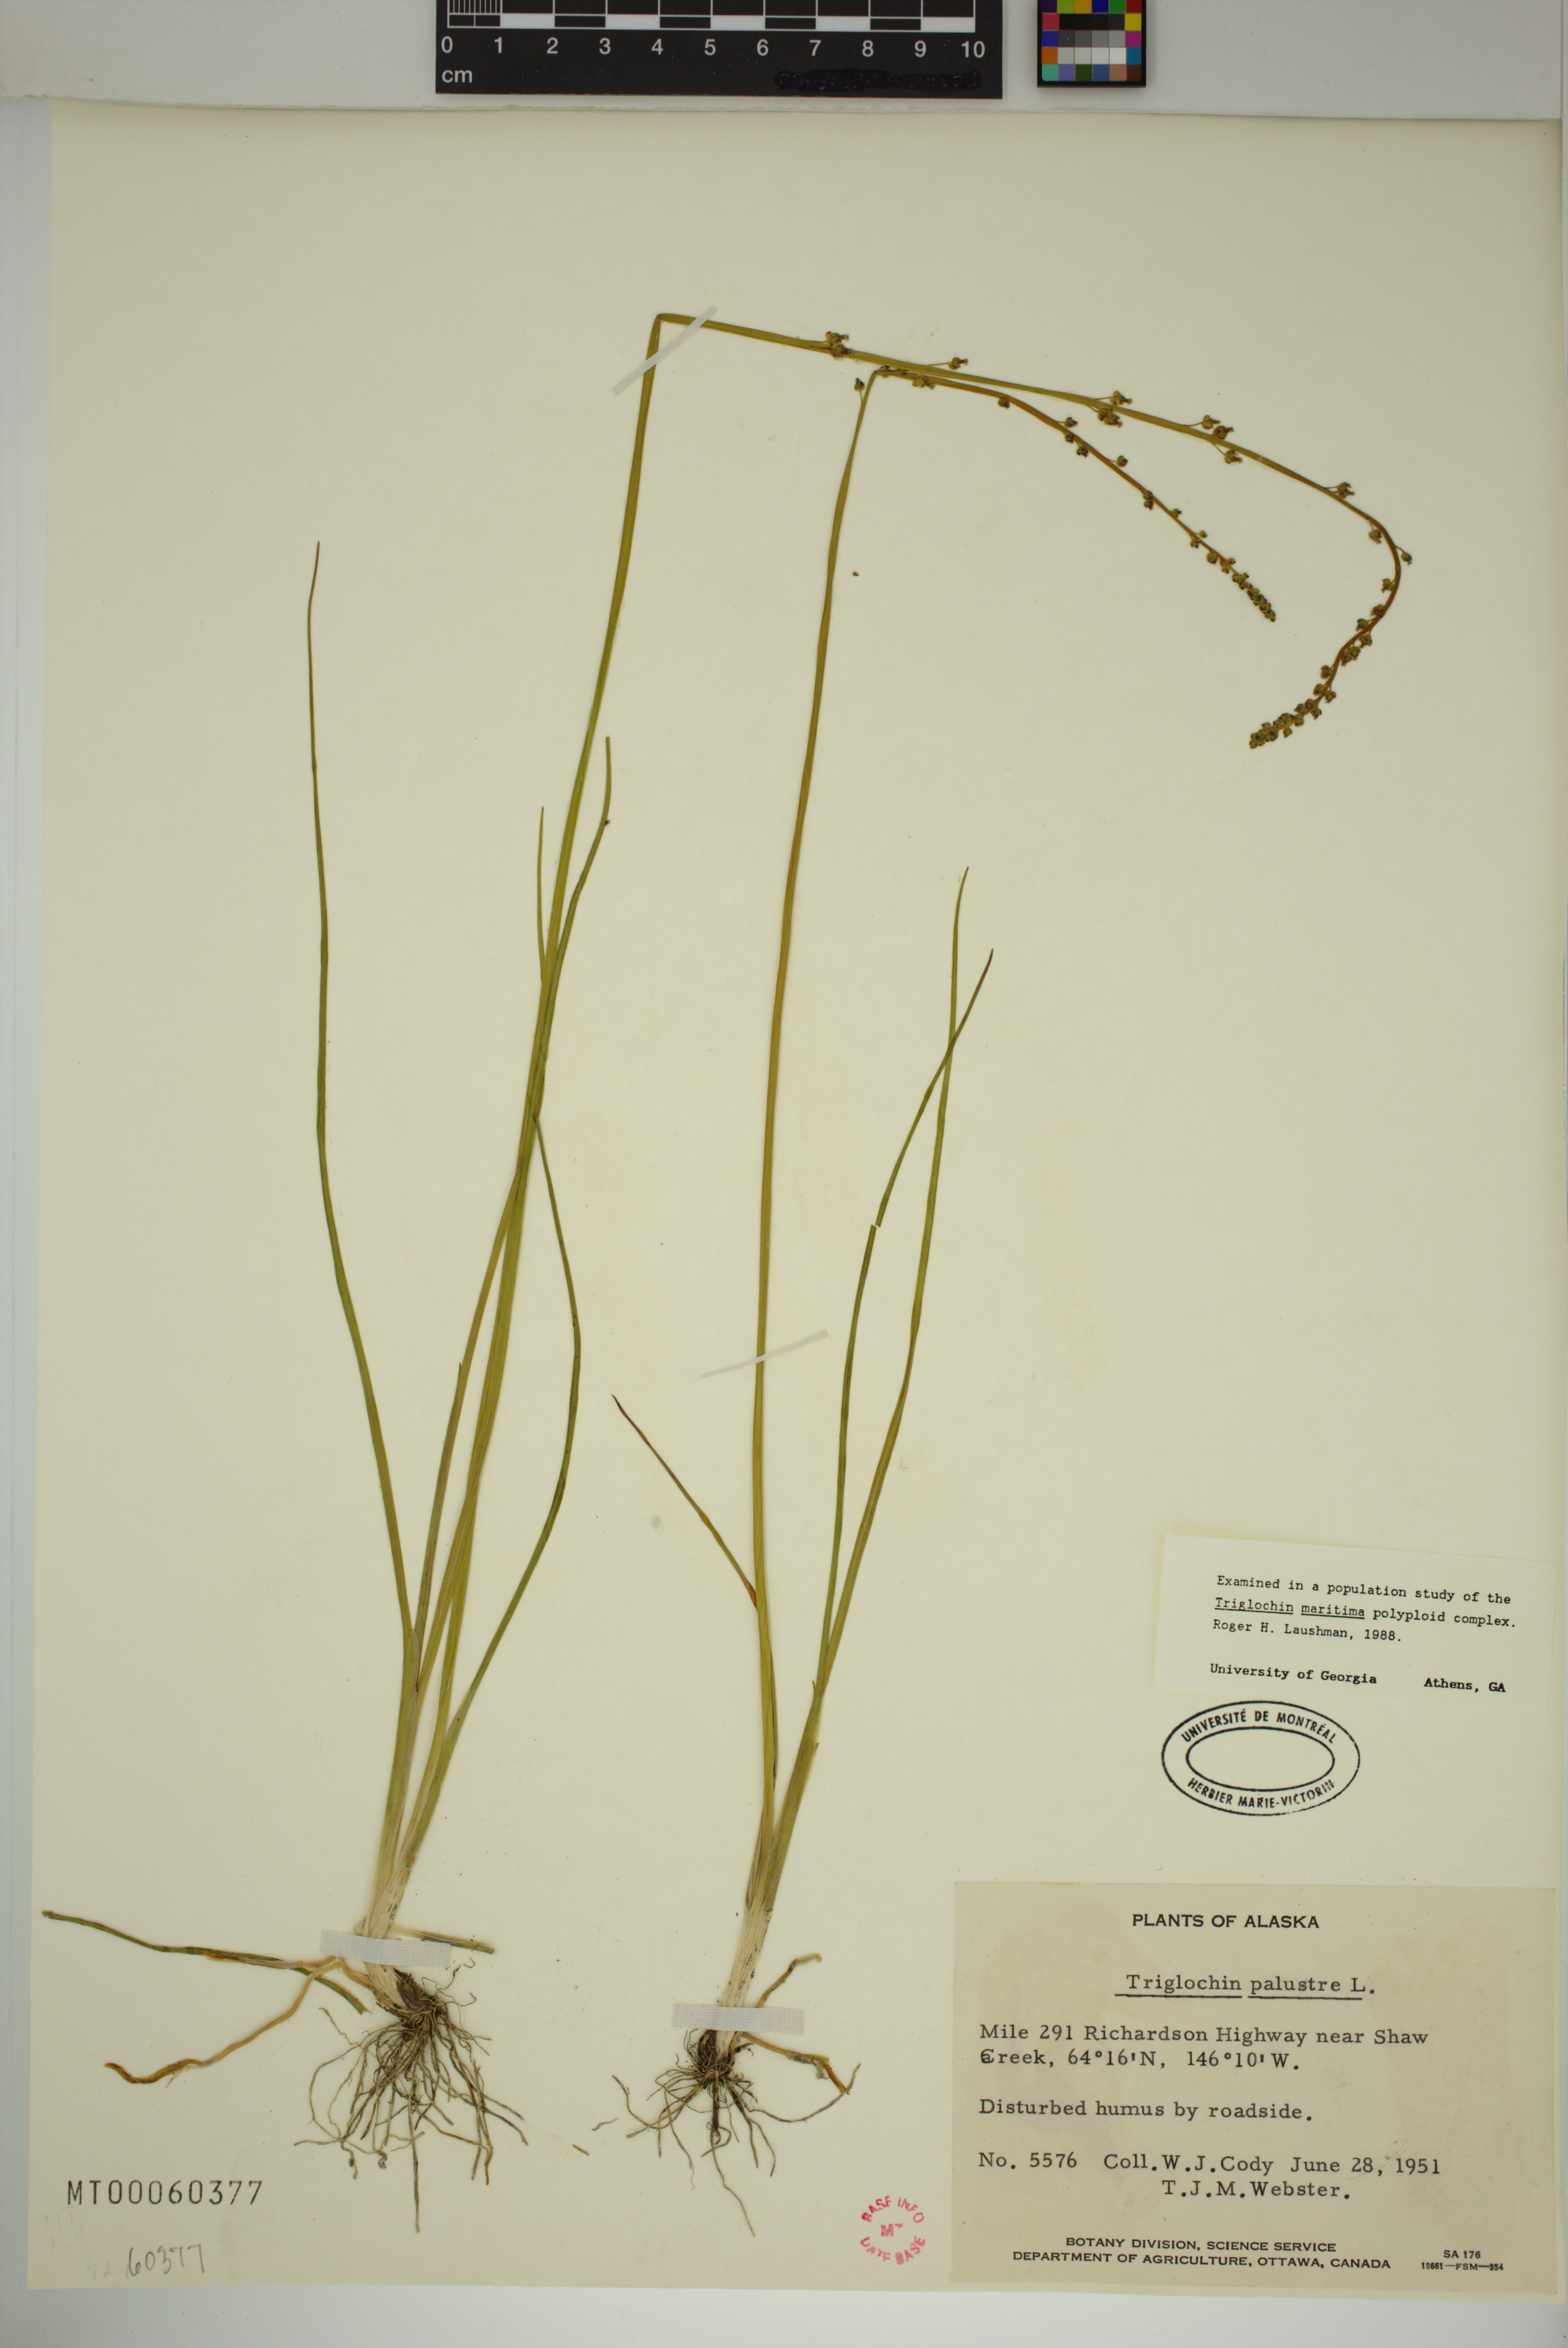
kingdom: Plantae
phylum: Tracheophyta
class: Liliopsida
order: Alismatales
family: Juncaginaceae
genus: Triglochin
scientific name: Triglochin palustris
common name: Marsh arrowgrass
